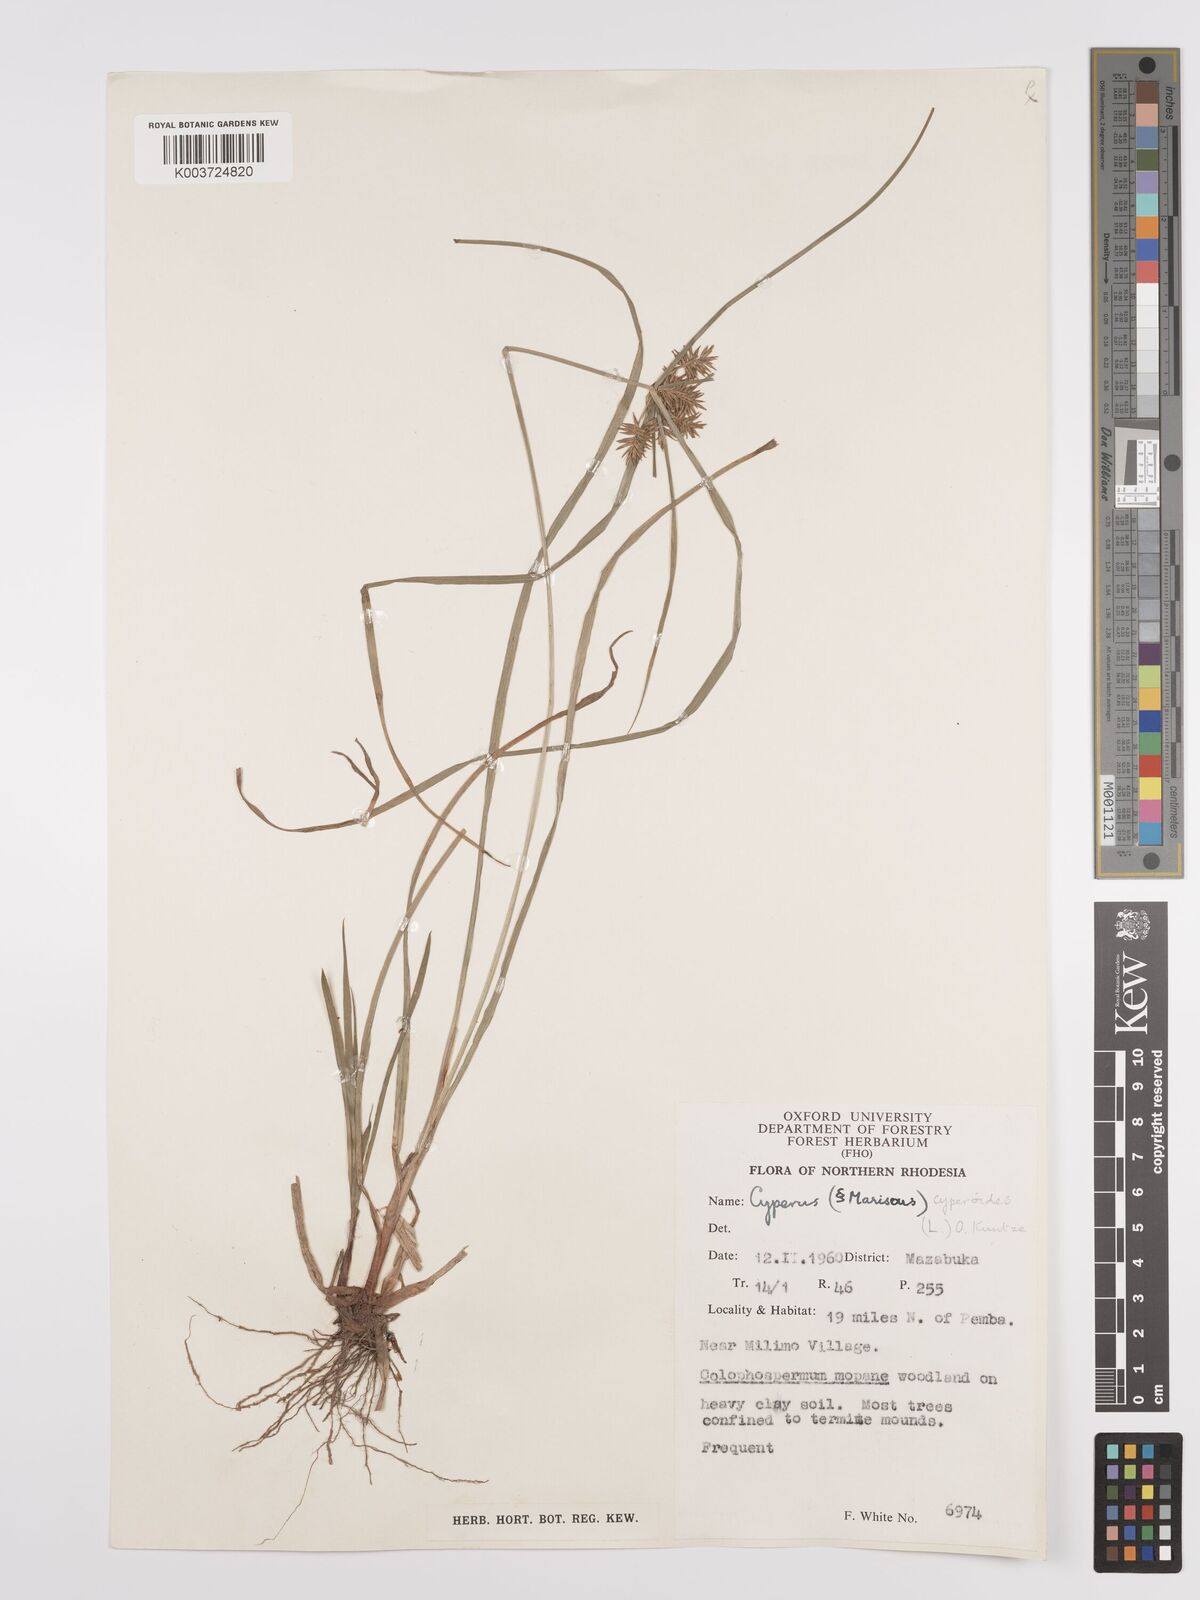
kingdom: Plantae
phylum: Tracheophyta
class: Liliopsida
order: Poales
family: Cyperaceae
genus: Cyperus
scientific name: Cyperus cyperoides
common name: Pacific island flat sedge
